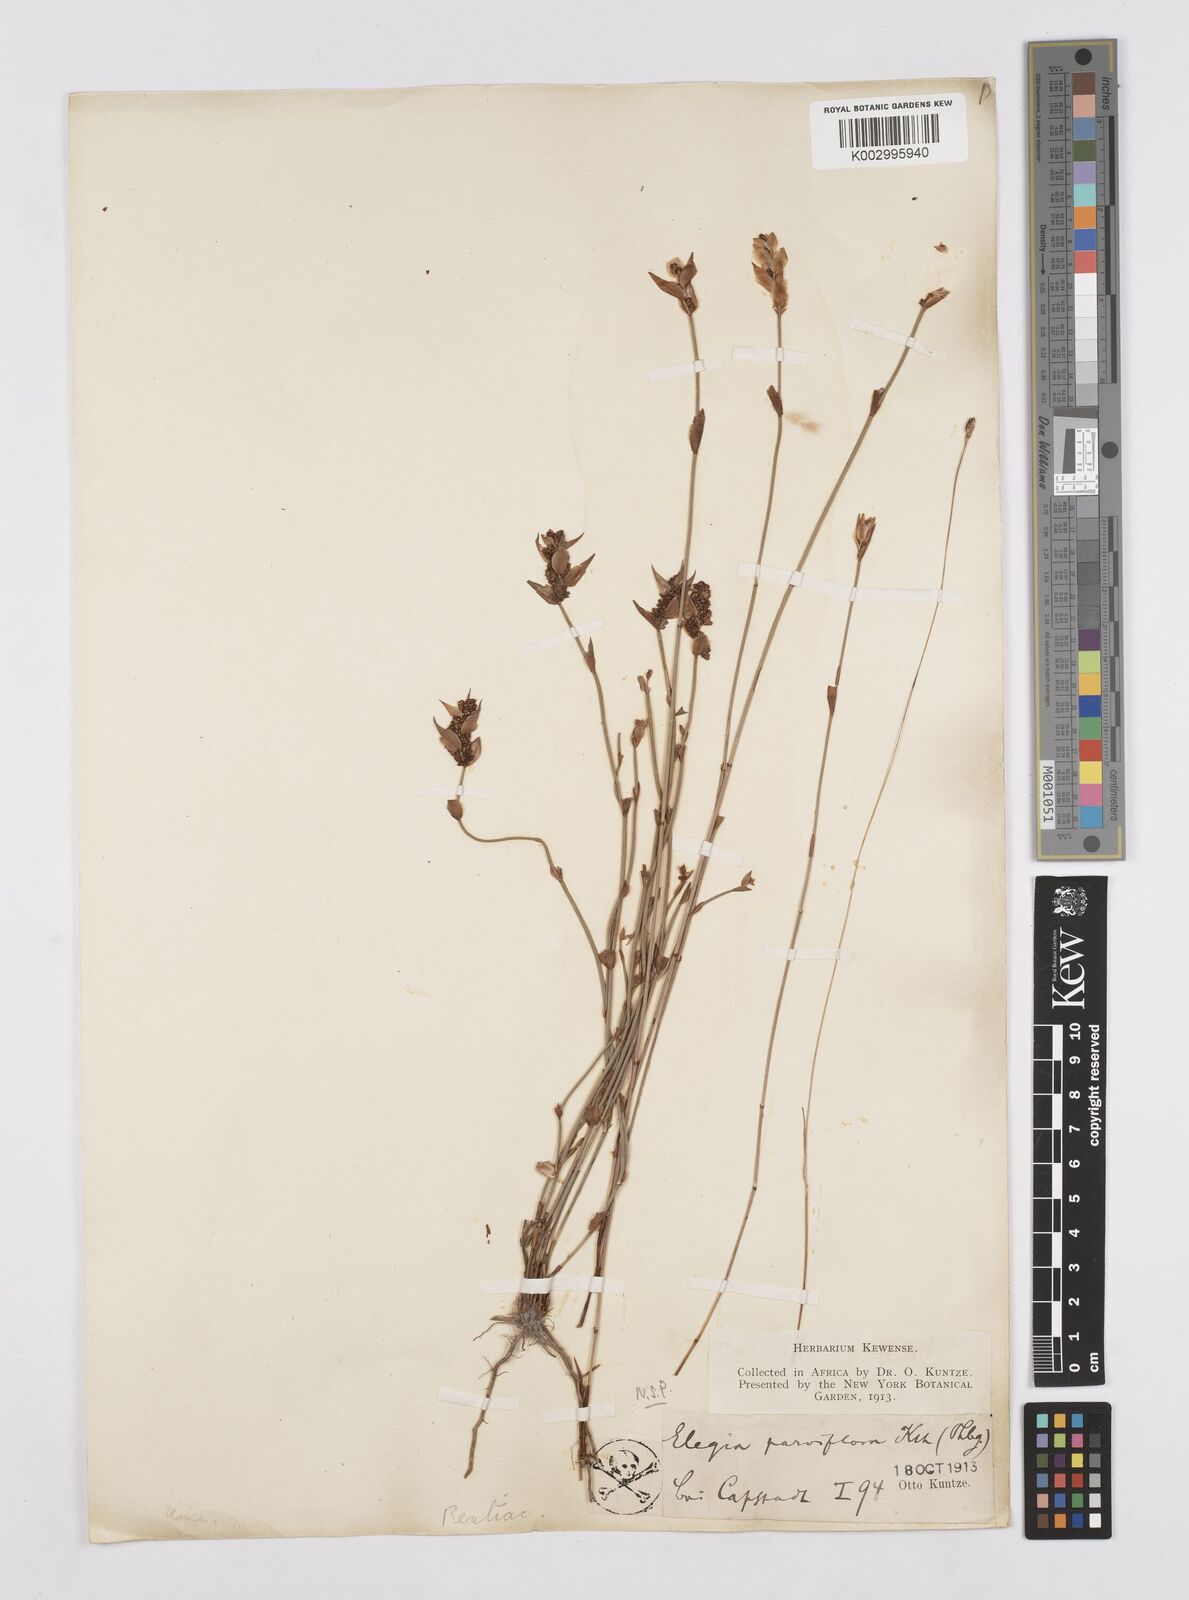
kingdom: Plantae
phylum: Tracheophyta
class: Liliopsida
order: Poales
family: Restionaceae
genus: Cannomois
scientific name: Cannomois parviflora
